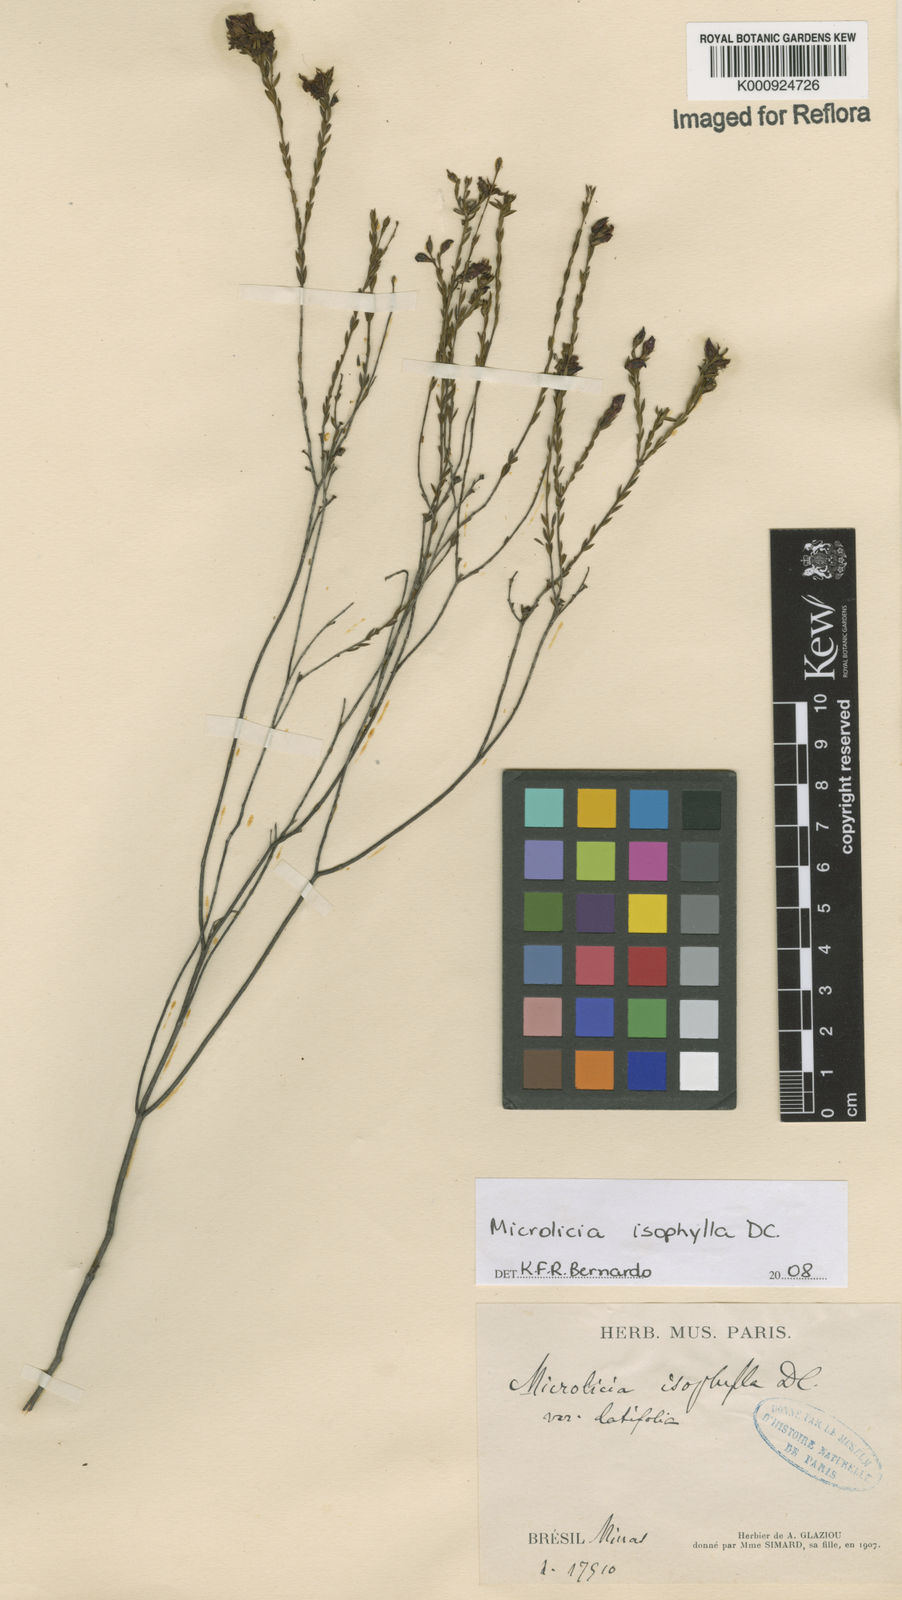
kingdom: Plantae
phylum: Tracheophyta
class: Magnoliopsida
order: Myrtales
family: Melastomataceae
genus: Microlicia
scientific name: Microlicia isophylla
